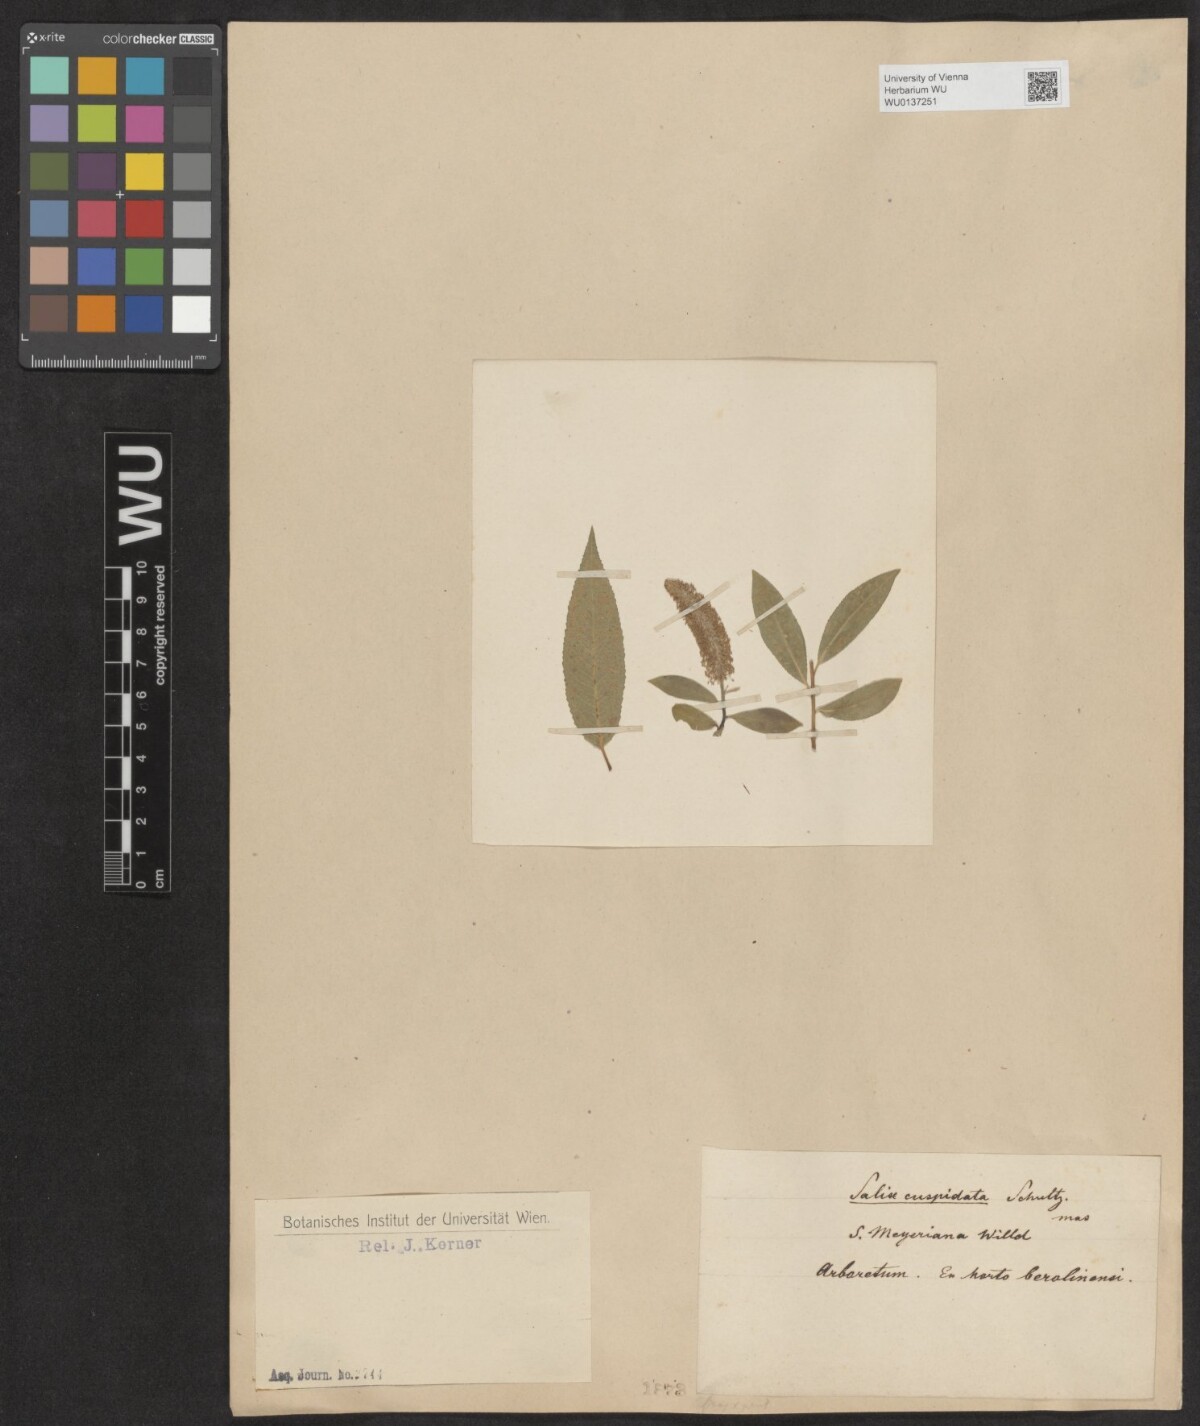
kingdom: Plantae
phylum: Tracheophyta
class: Magnoliopsida
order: Malpighiales
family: Salicaceae
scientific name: Salicaceae
